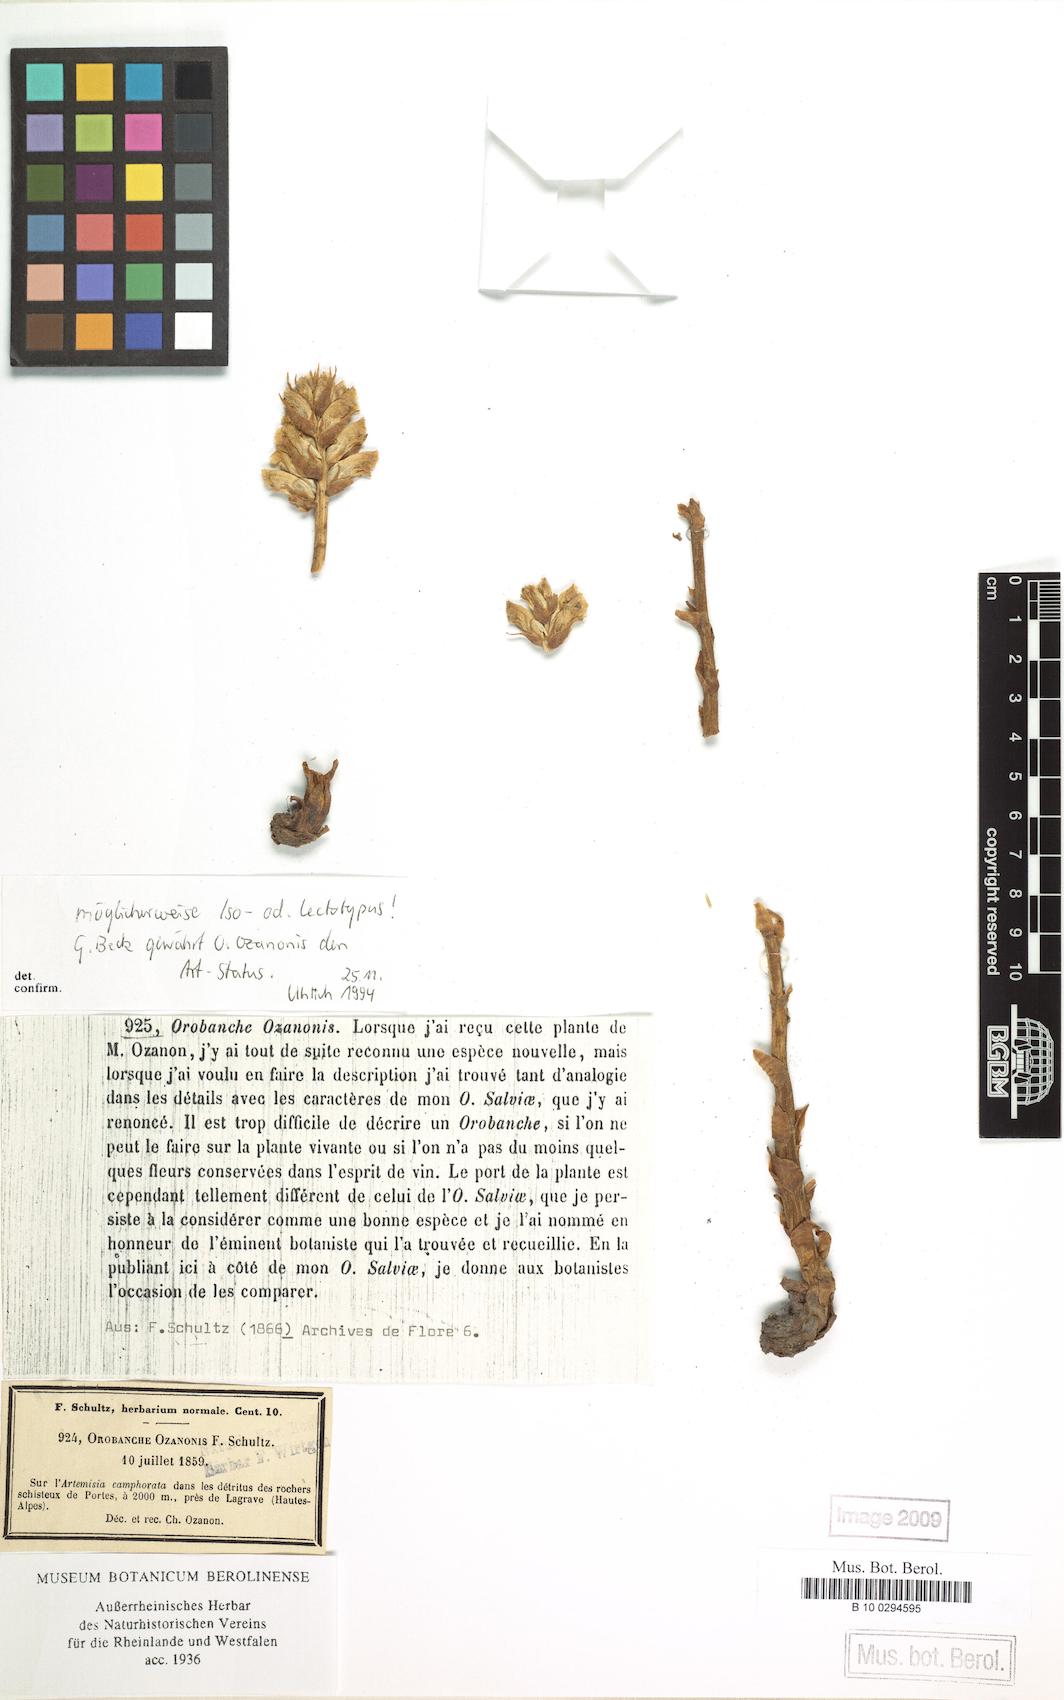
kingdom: Plantae
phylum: Tracheophyta
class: Magnoliopsida
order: Lamiales
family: Orobanchaceae
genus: Orobanche
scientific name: Orobanche ozanonis
